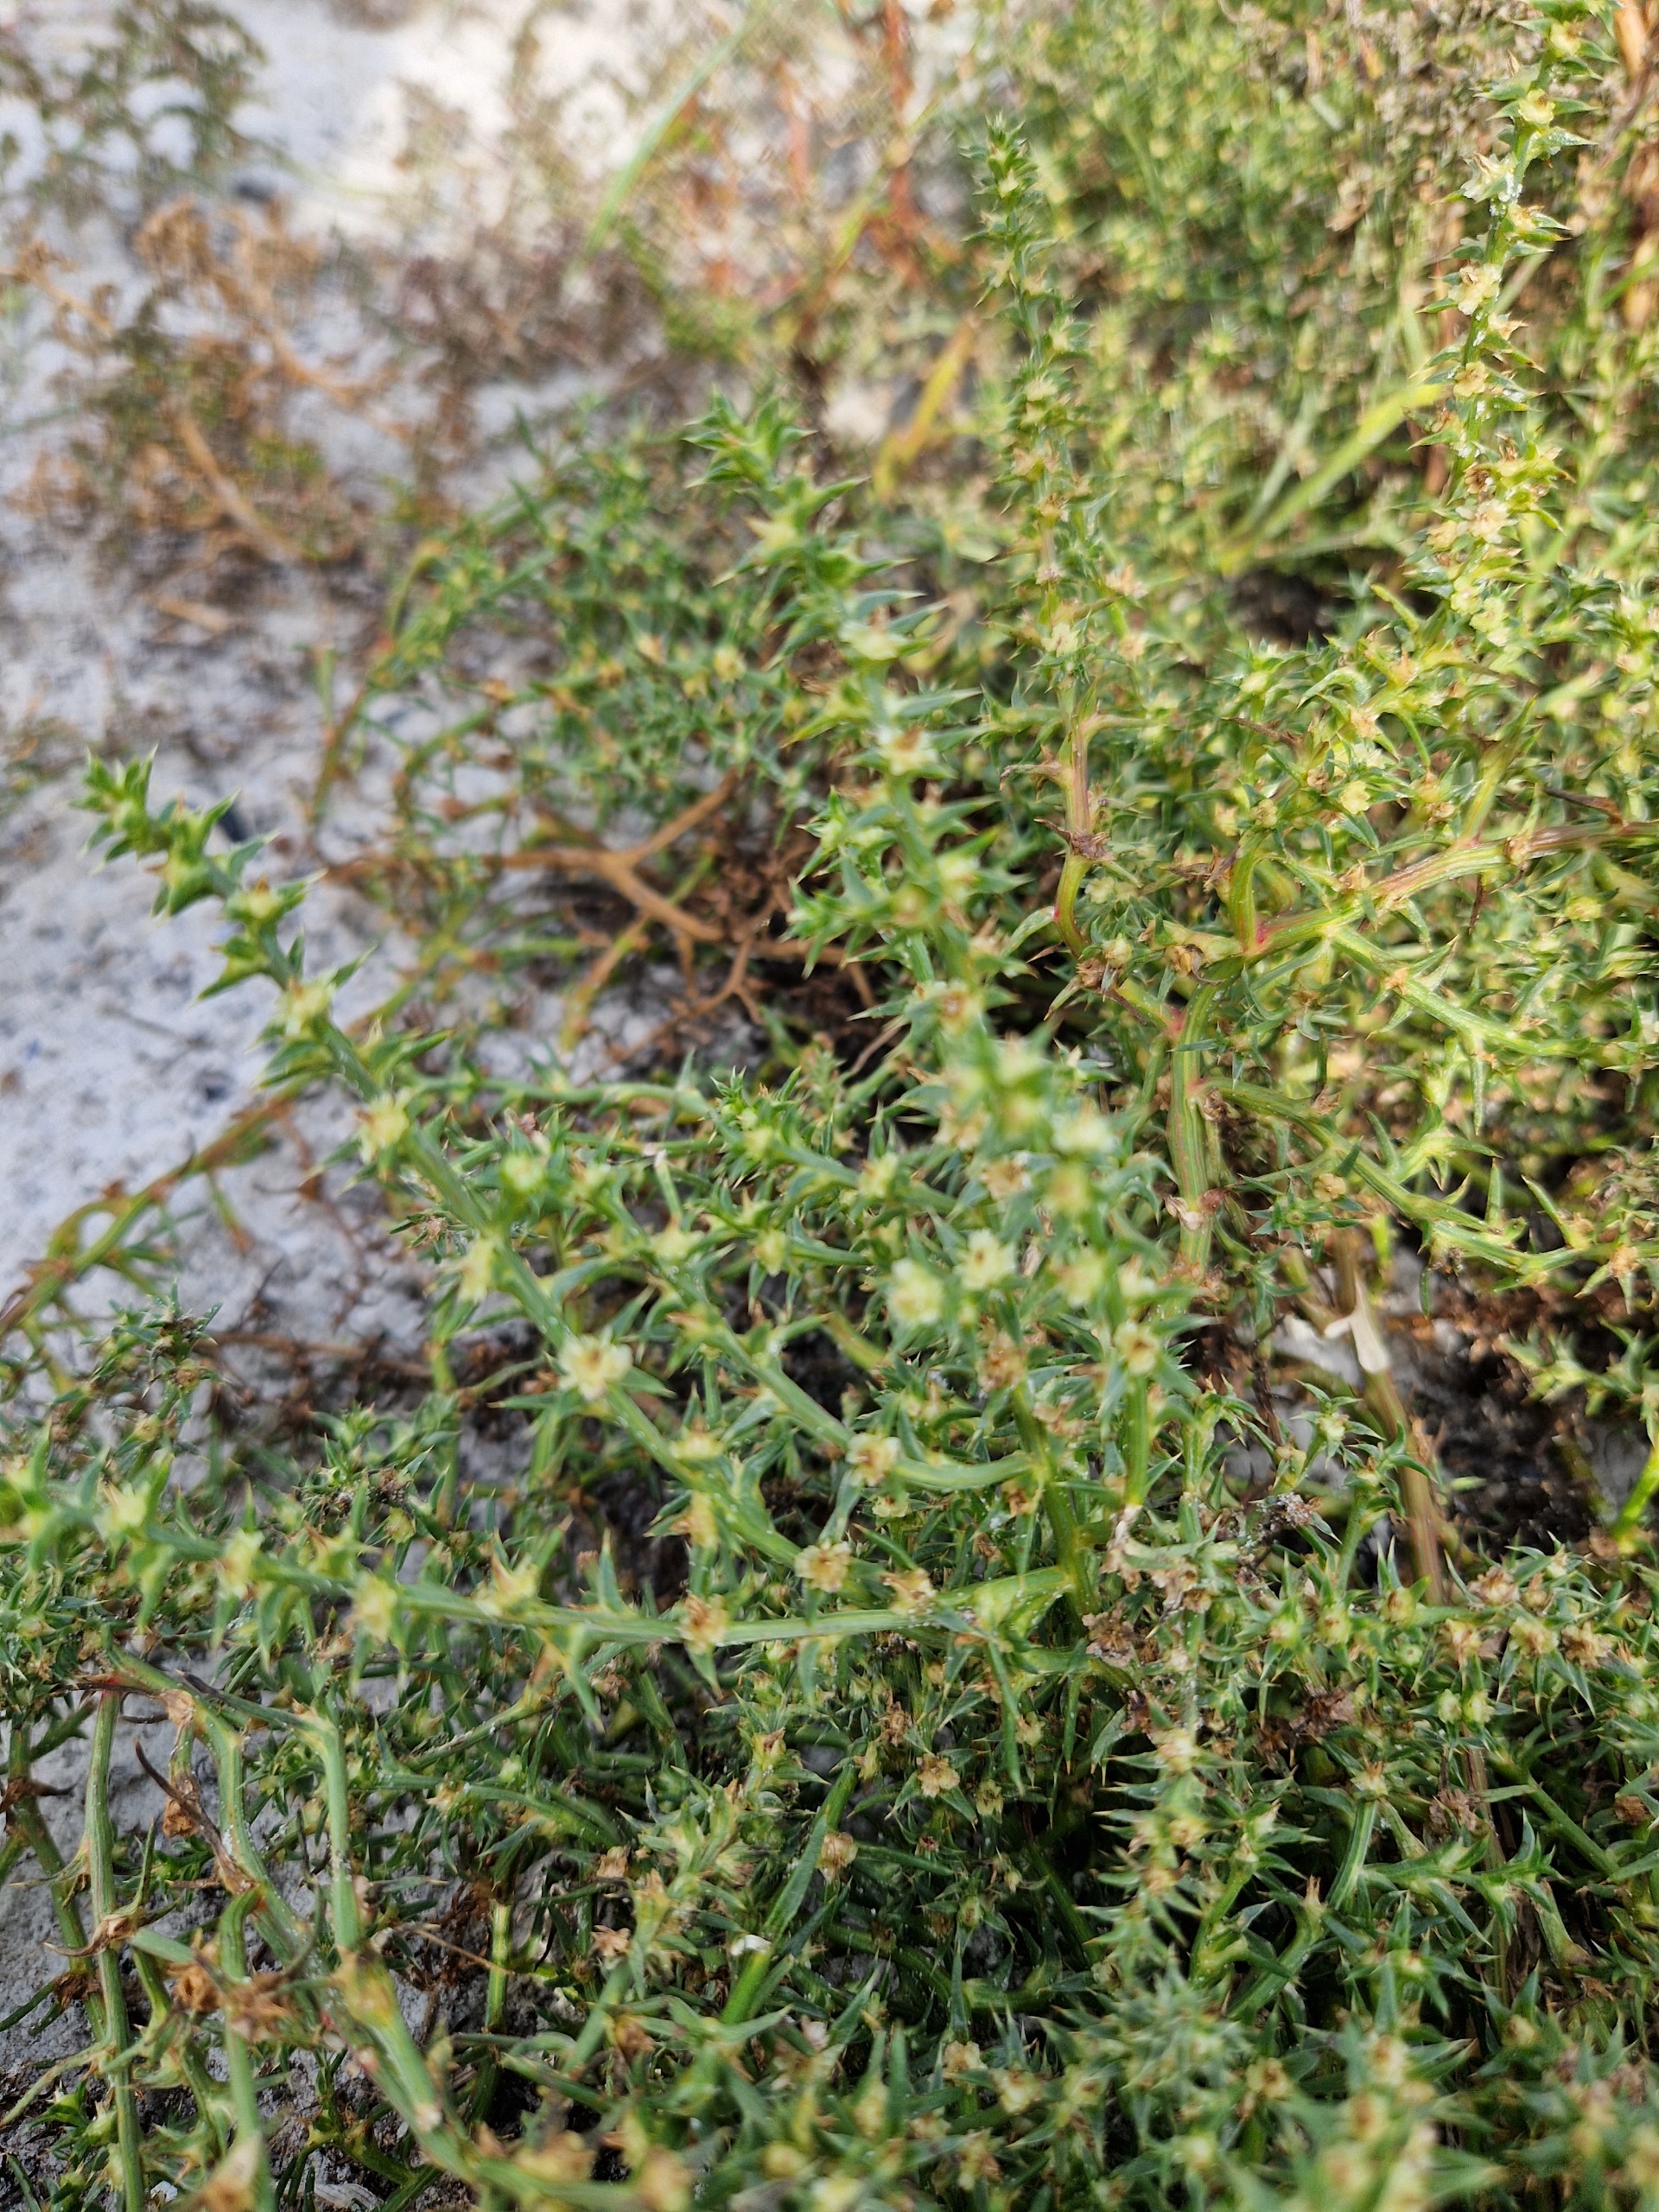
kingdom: Plantae
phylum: Tracheophyta
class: Magnoliopsida
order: Caryophyllales
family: Amaranthaceae
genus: Salsola
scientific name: Salsola kali
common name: Sodaurt
